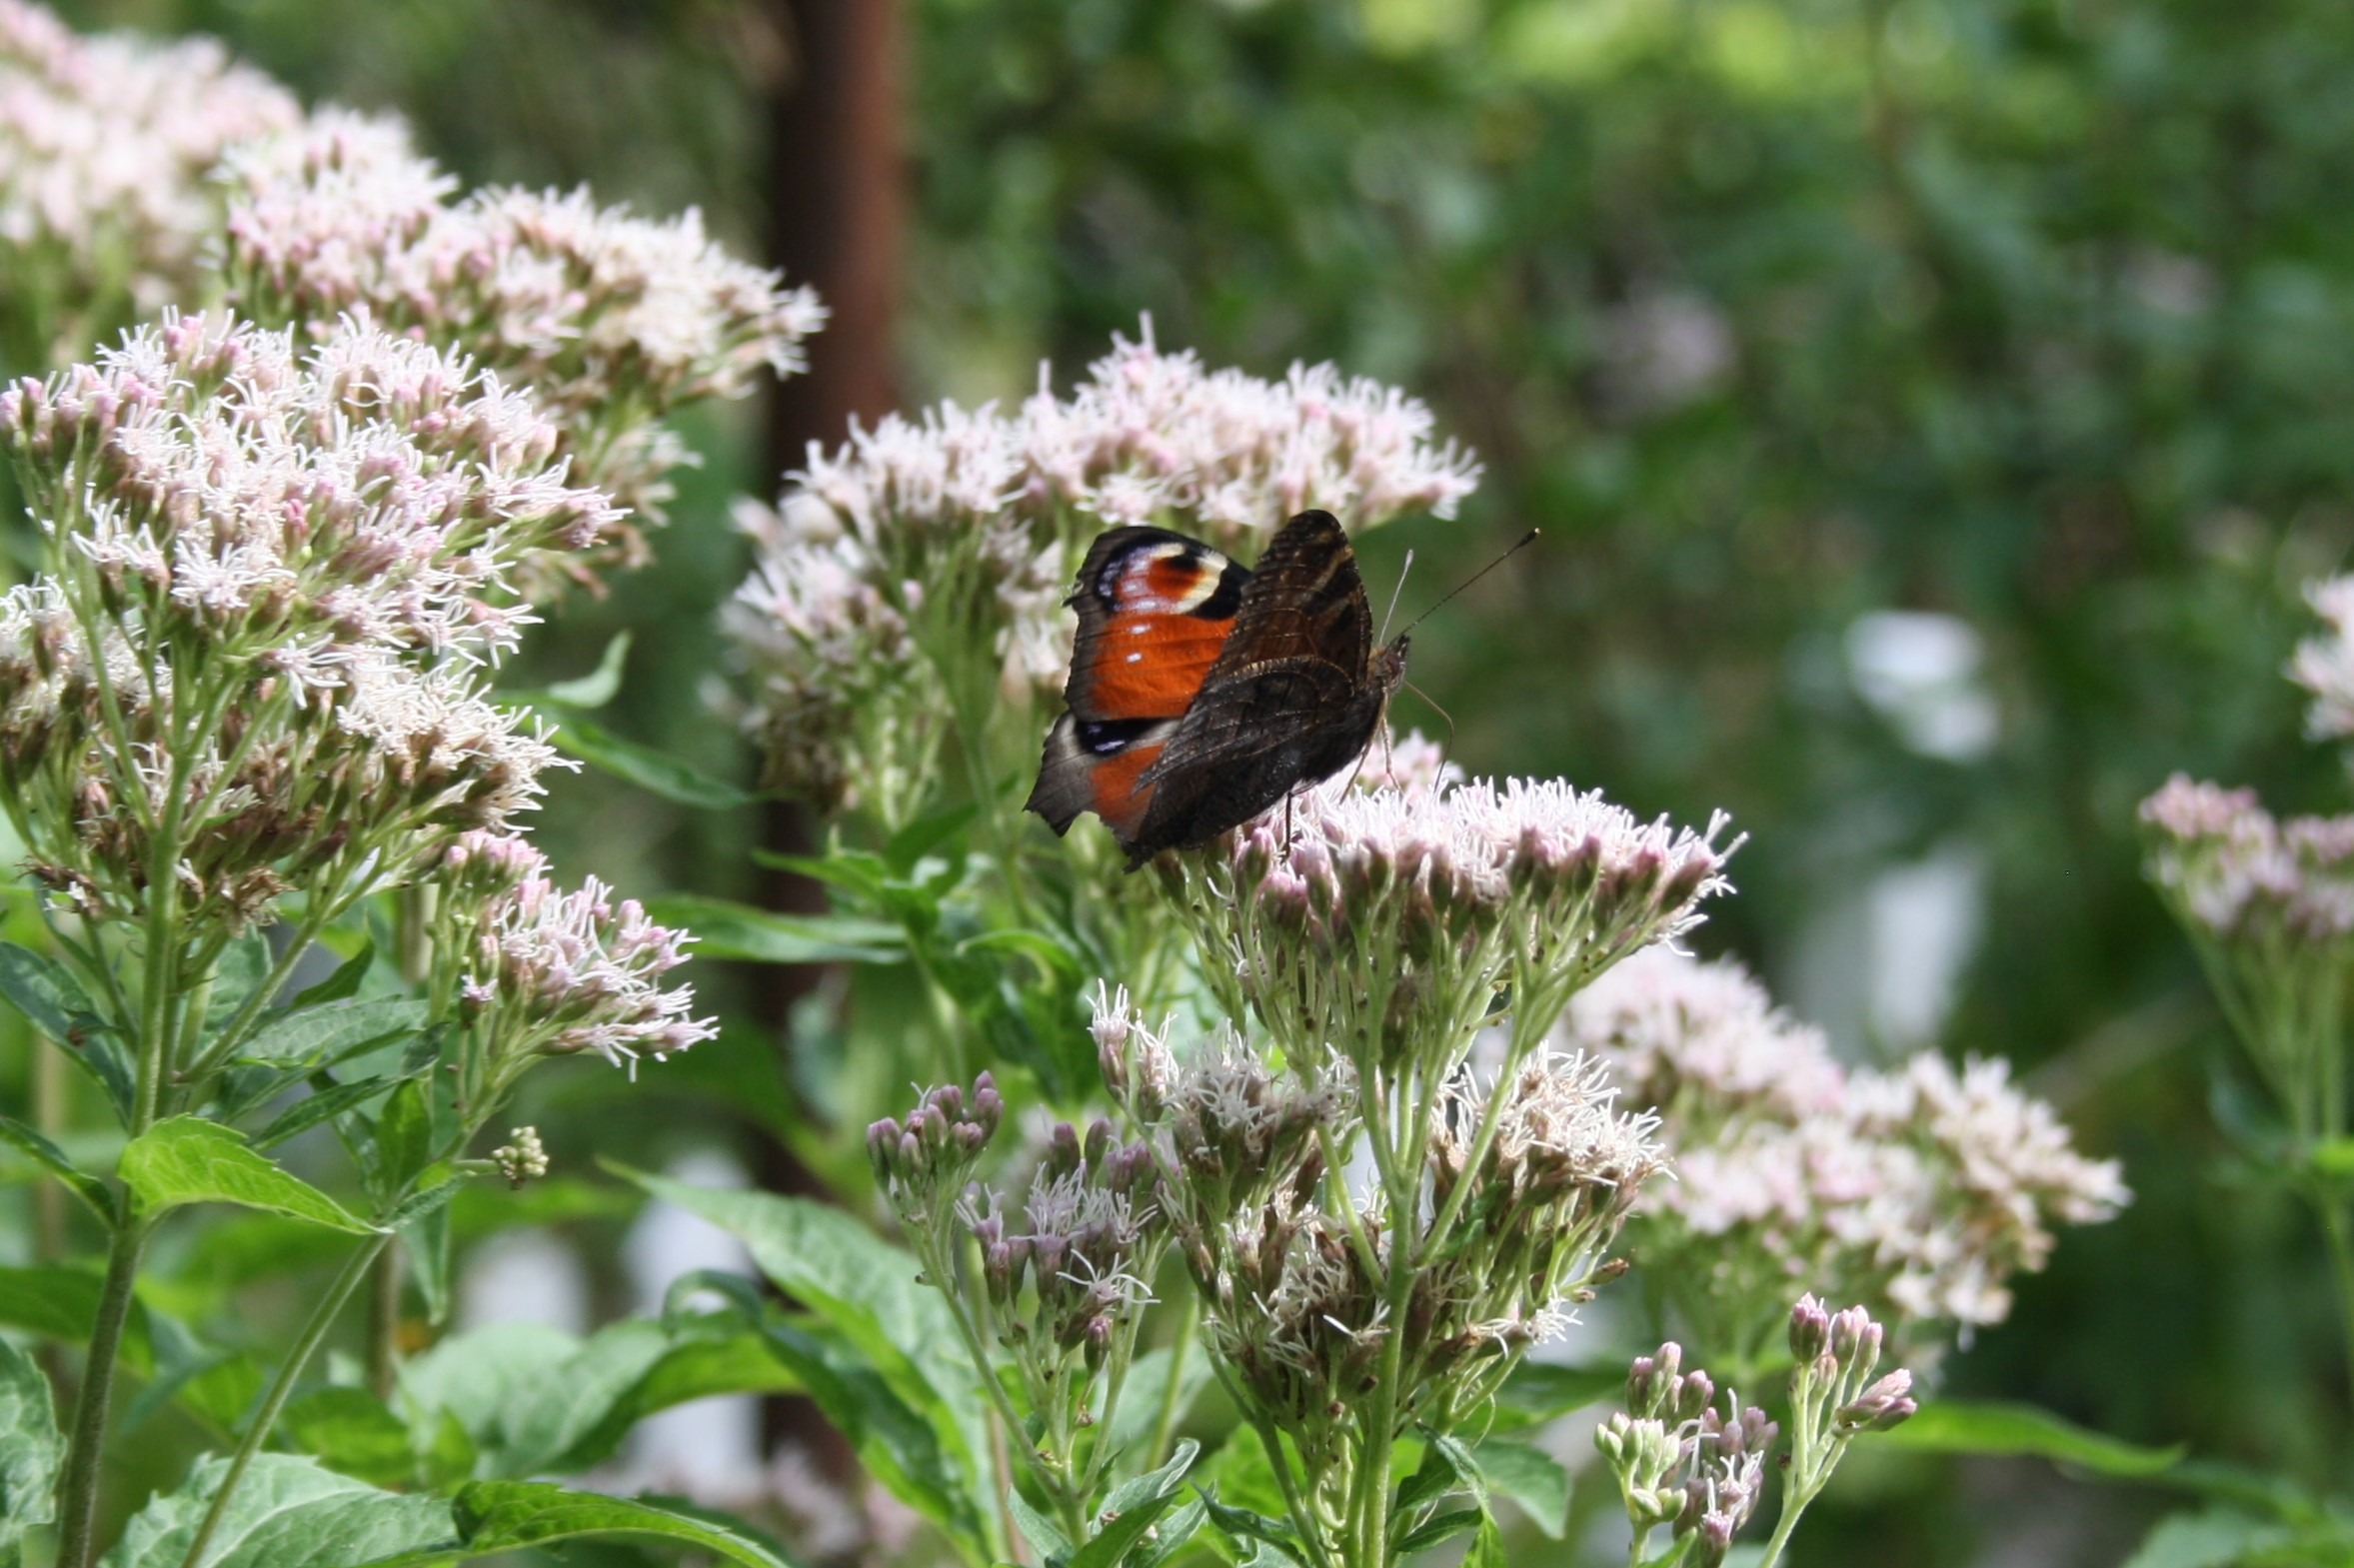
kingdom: Animalia
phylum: Arthropoda
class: Insecta
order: Lepidoptera
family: Nymphalidae
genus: Aglais
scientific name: Aglais io
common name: Dagpåfugleøje
